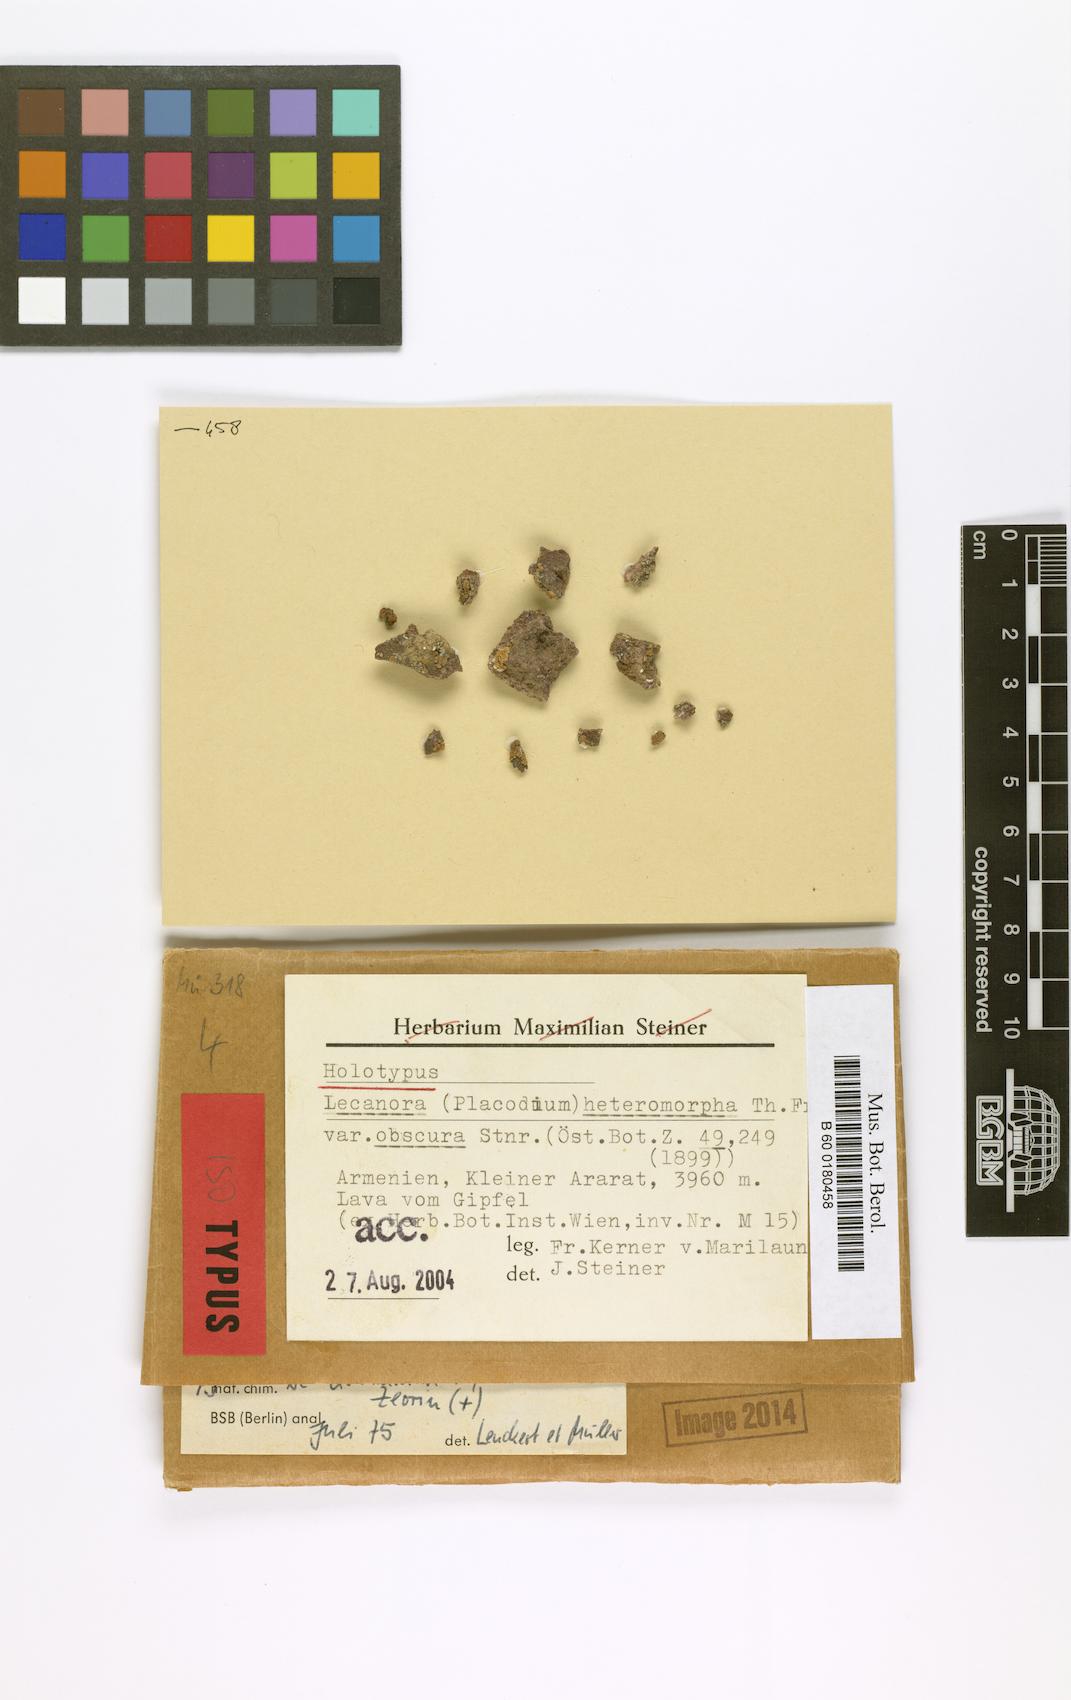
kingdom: Fungi
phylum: Ascomycota
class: Lecanoromycetes
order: Lecanorales
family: Lecanoraceae
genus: Lecanora
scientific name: Lecanora
